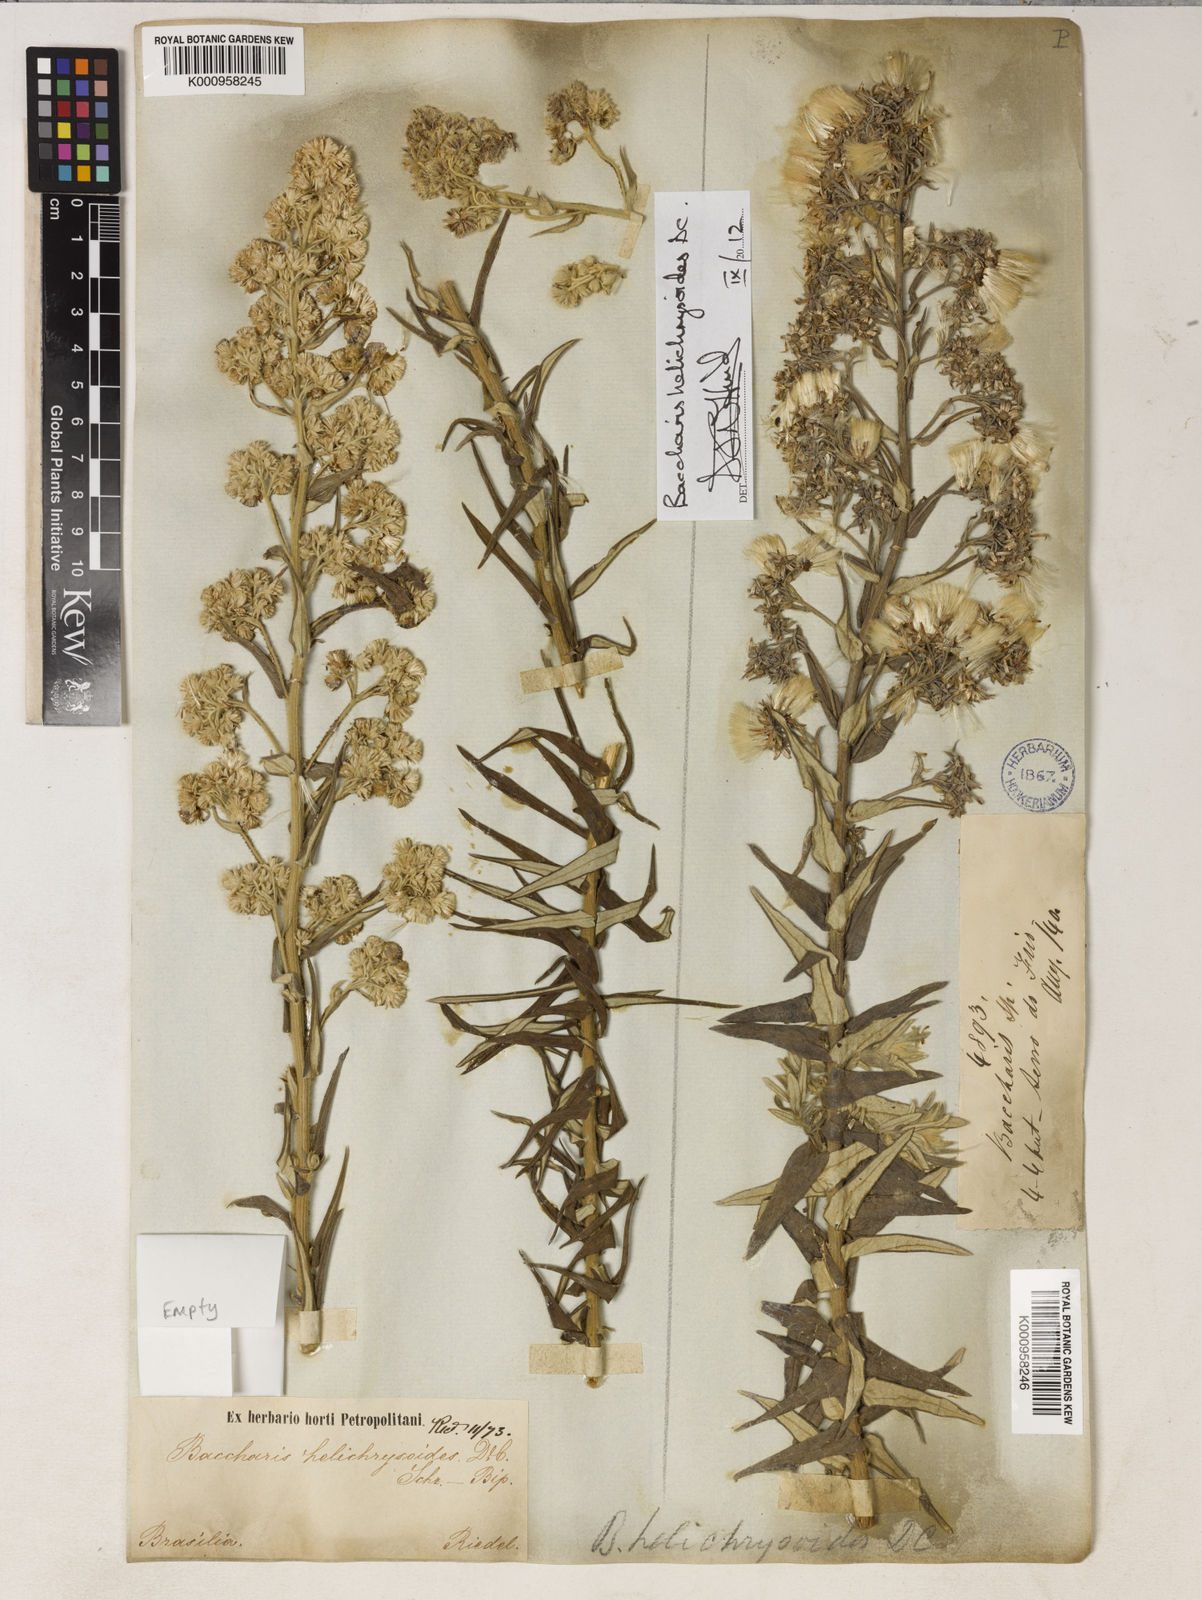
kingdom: Plantae
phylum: Tracheophyta
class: Magnoliopsida
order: Asterales
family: Asteraceae
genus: Baccharis
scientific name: Baccharis helichrysoides
